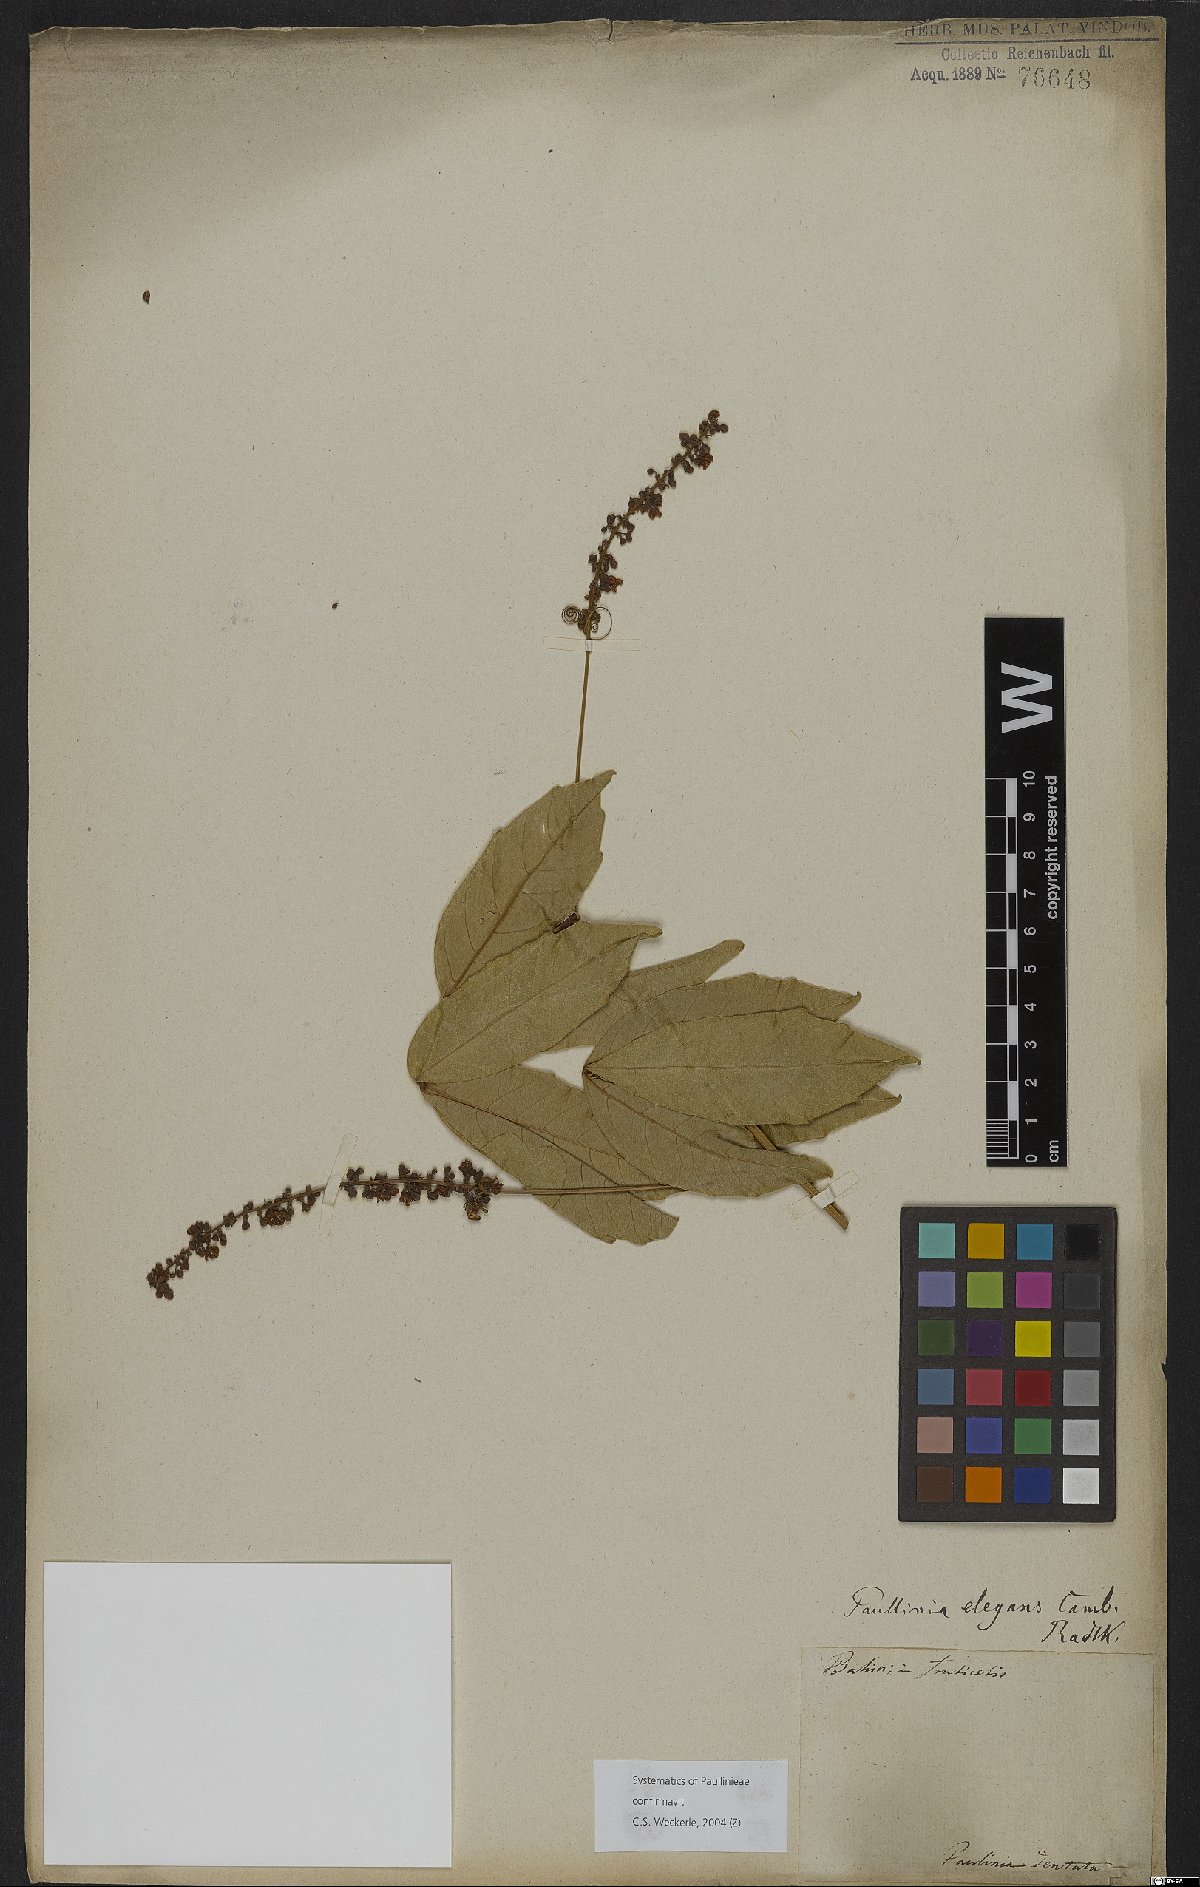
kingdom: Plantae
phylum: Tracheophyta
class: Magnoliopsida
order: Sapindales
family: Sapindaceae
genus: Paullinia
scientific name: Paullinia elegans
